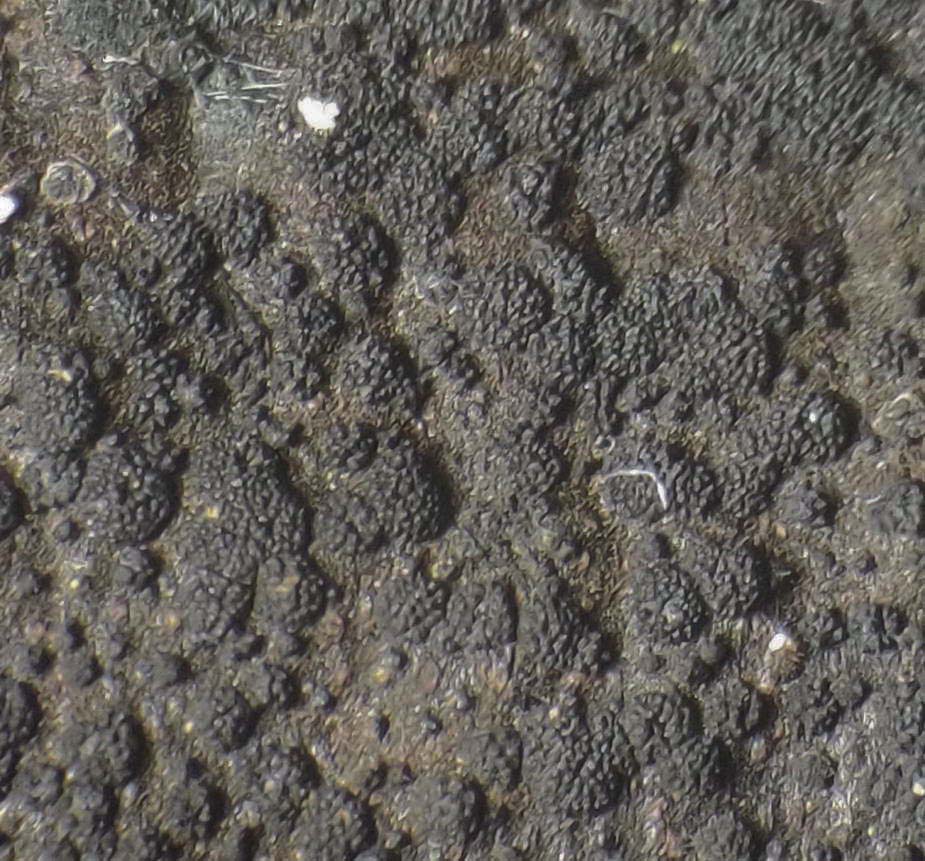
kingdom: Fungi
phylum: Ascomycota
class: Eurotiomycetes
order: Chaetothyriales
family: Herpotrichiellaceae
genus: Capronia
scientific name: Capronia nigerrima
